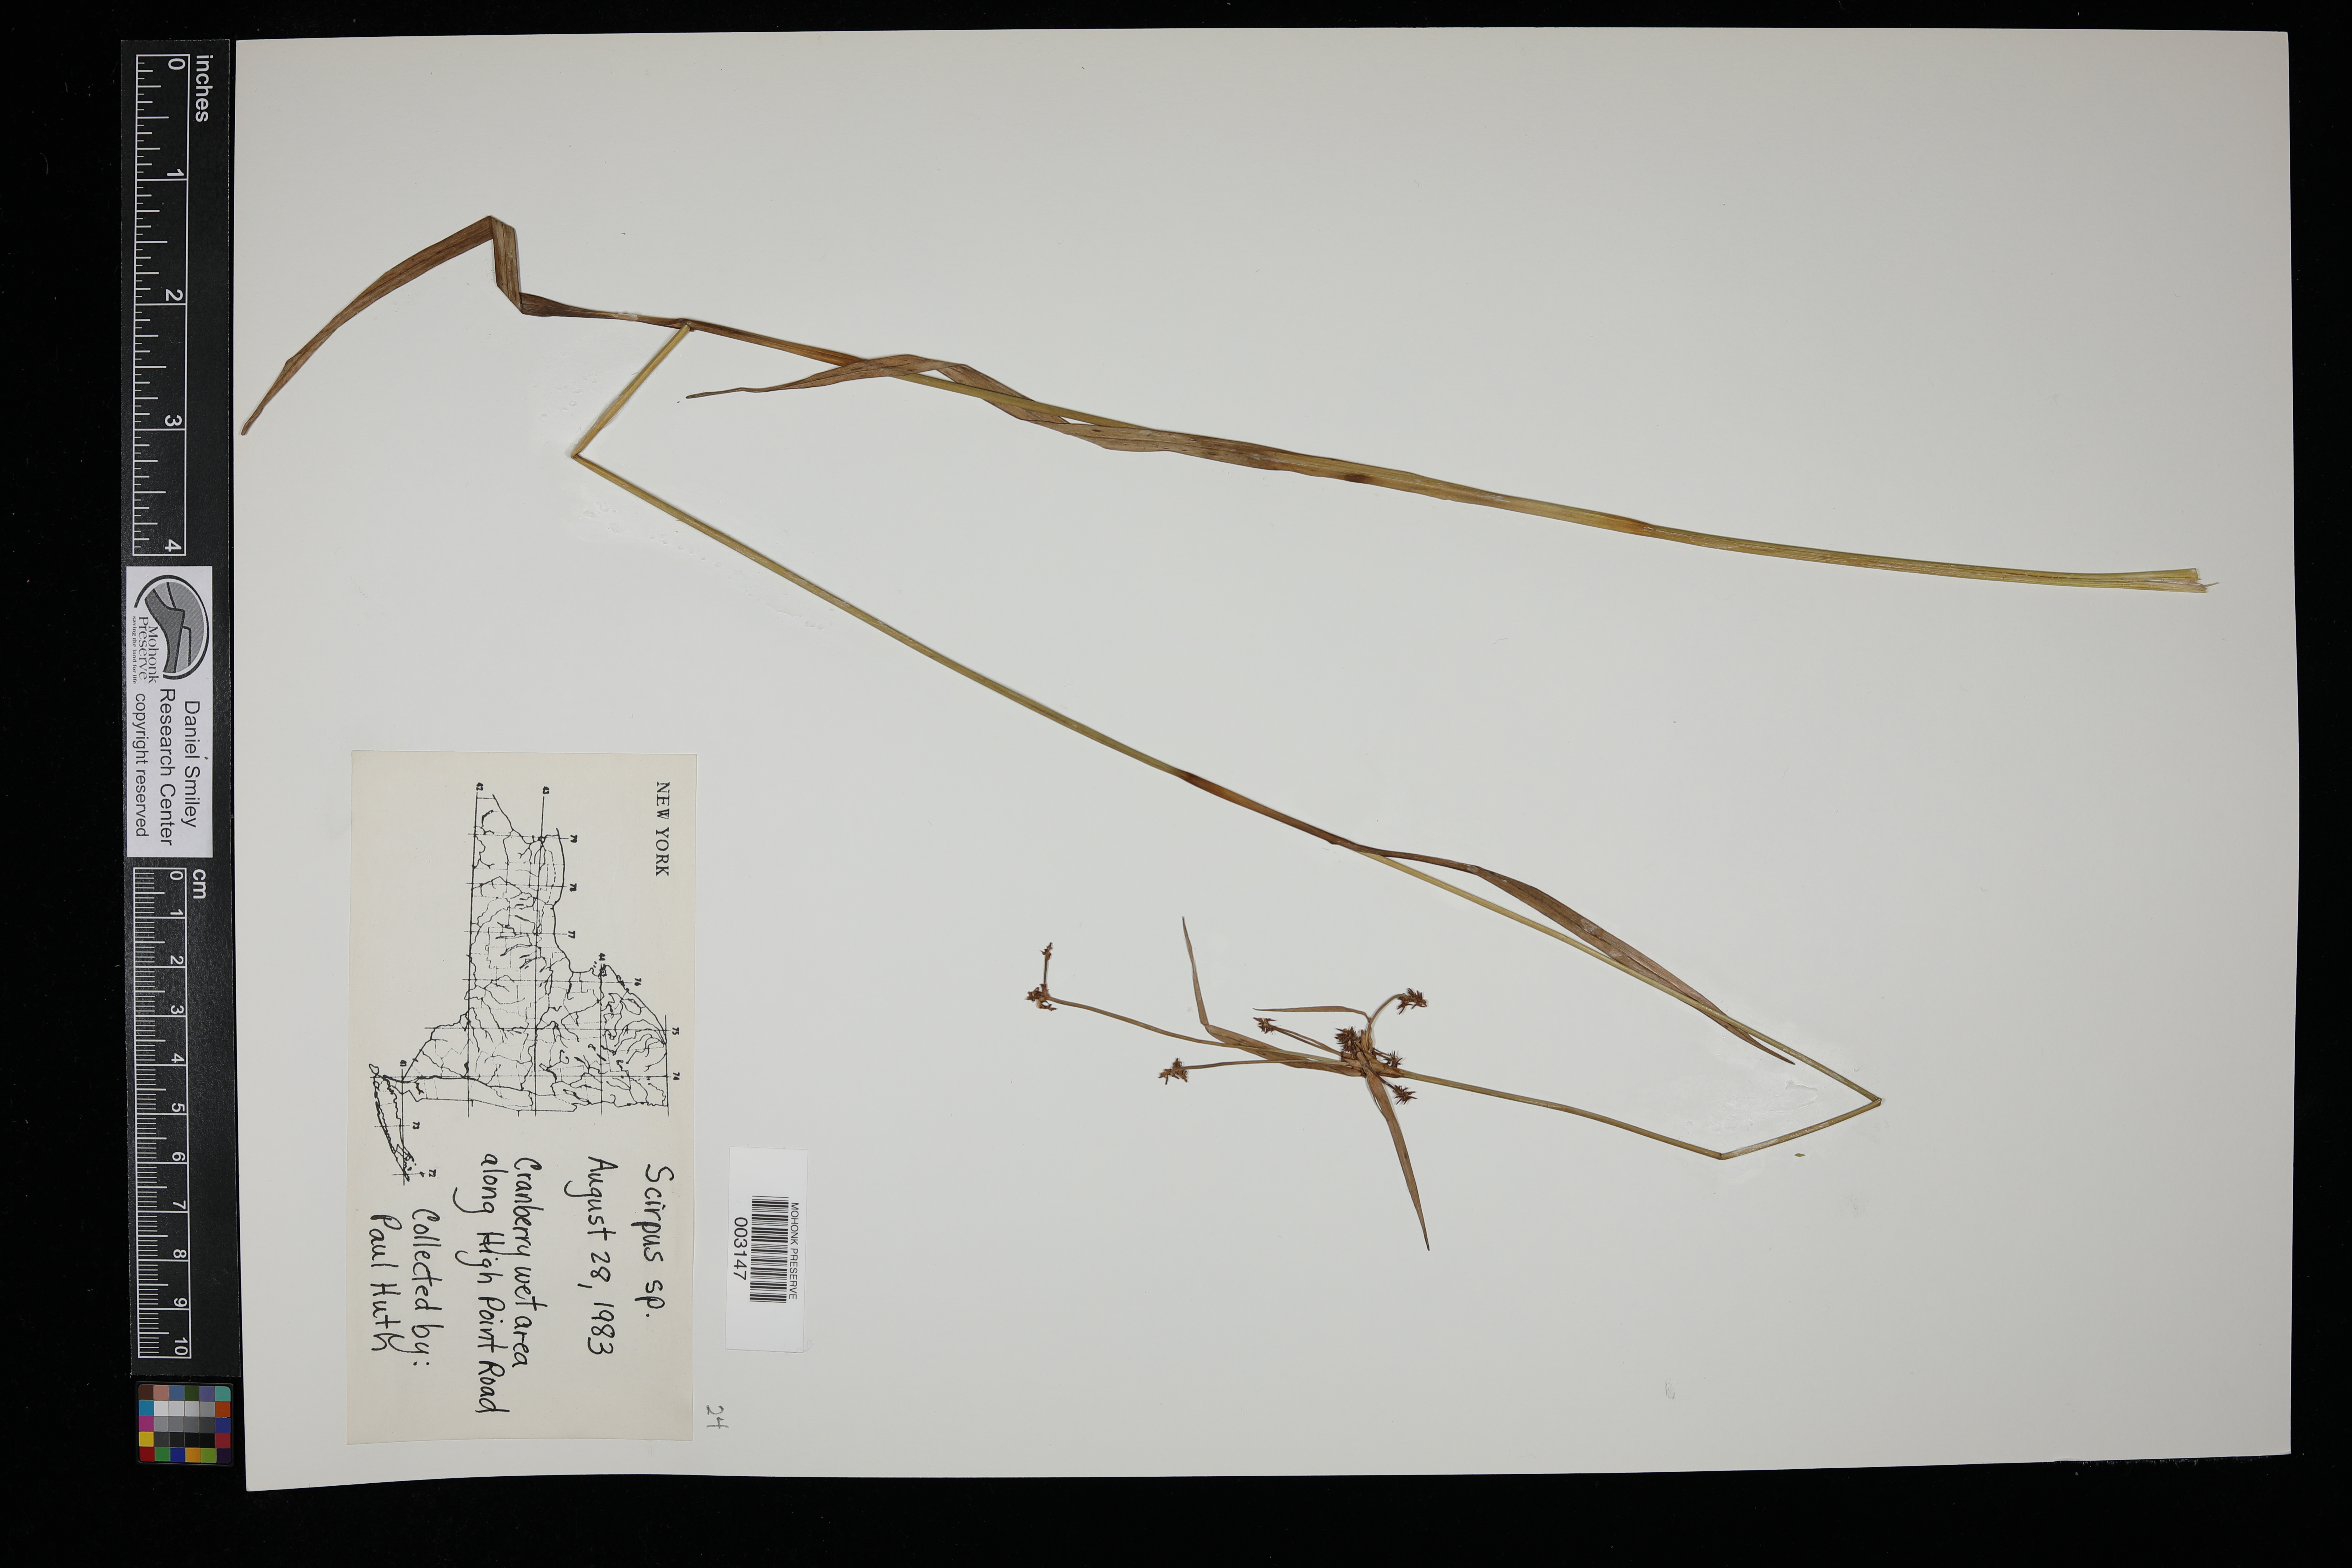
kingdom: Plantae
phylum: Tracheophyta
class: Liliopsida
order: Poales
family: Cyperaceae
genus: Scirpus
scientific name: Scirpus
